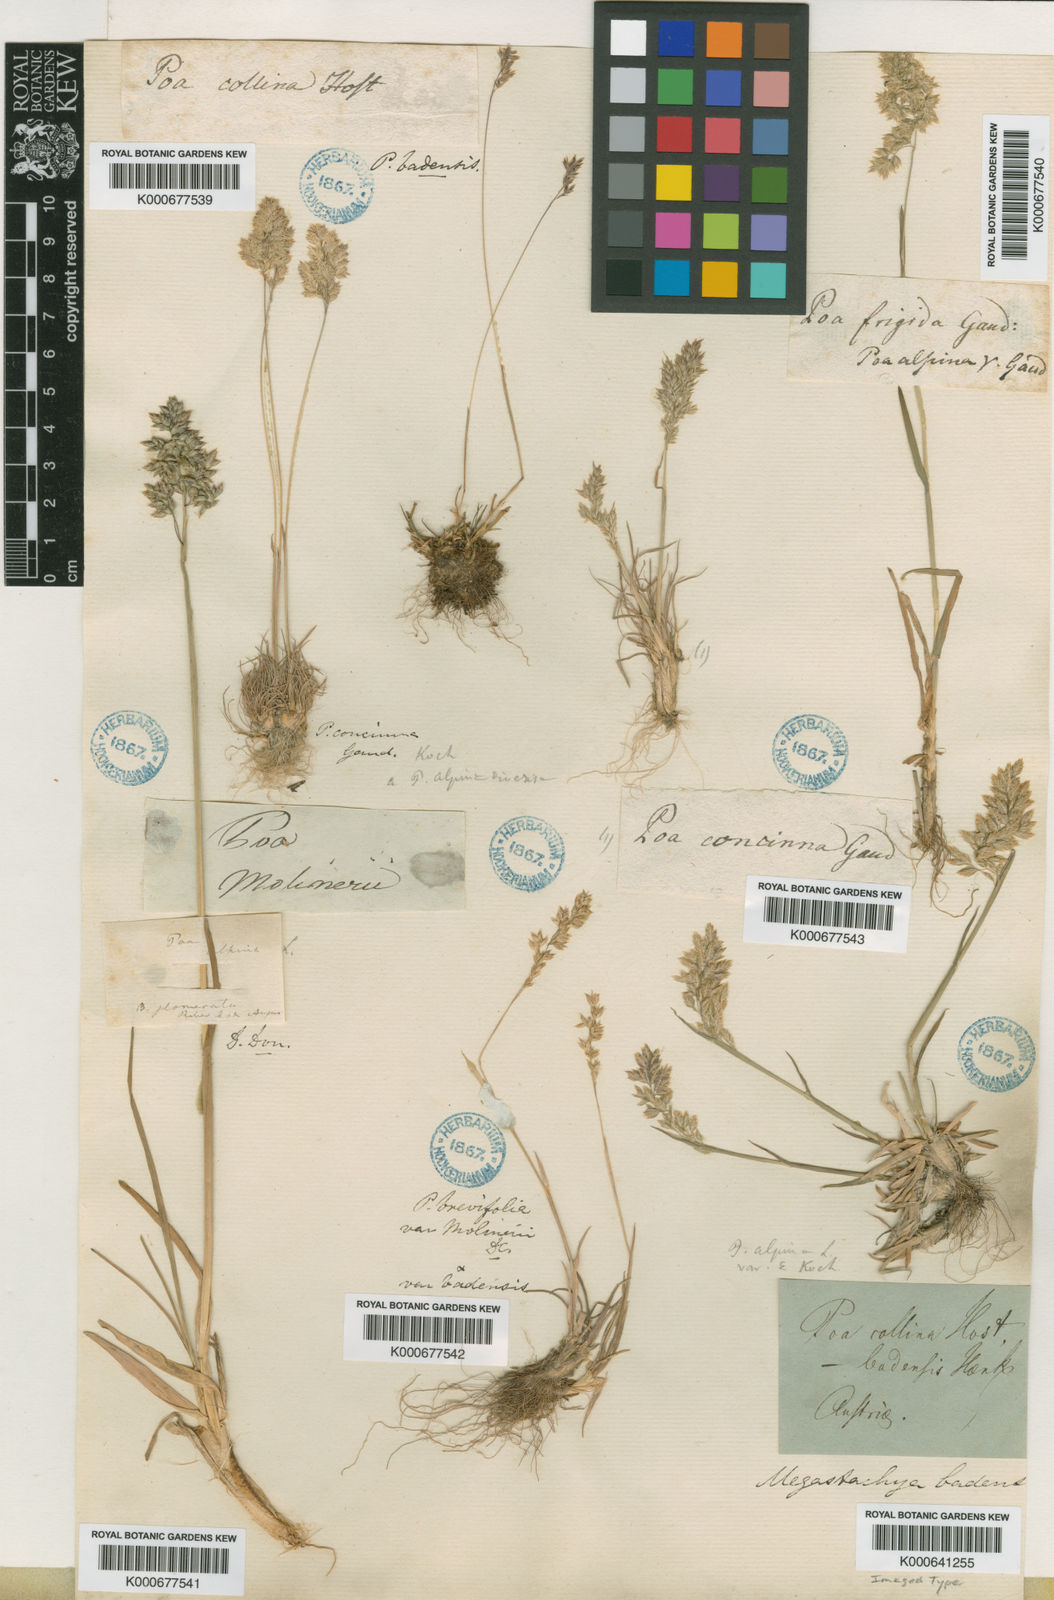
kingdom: Plantae
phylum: Tracheophyta
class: Liliopsida
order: Poales
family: Poaceae
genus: Poa
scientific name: Poa perconcinna
